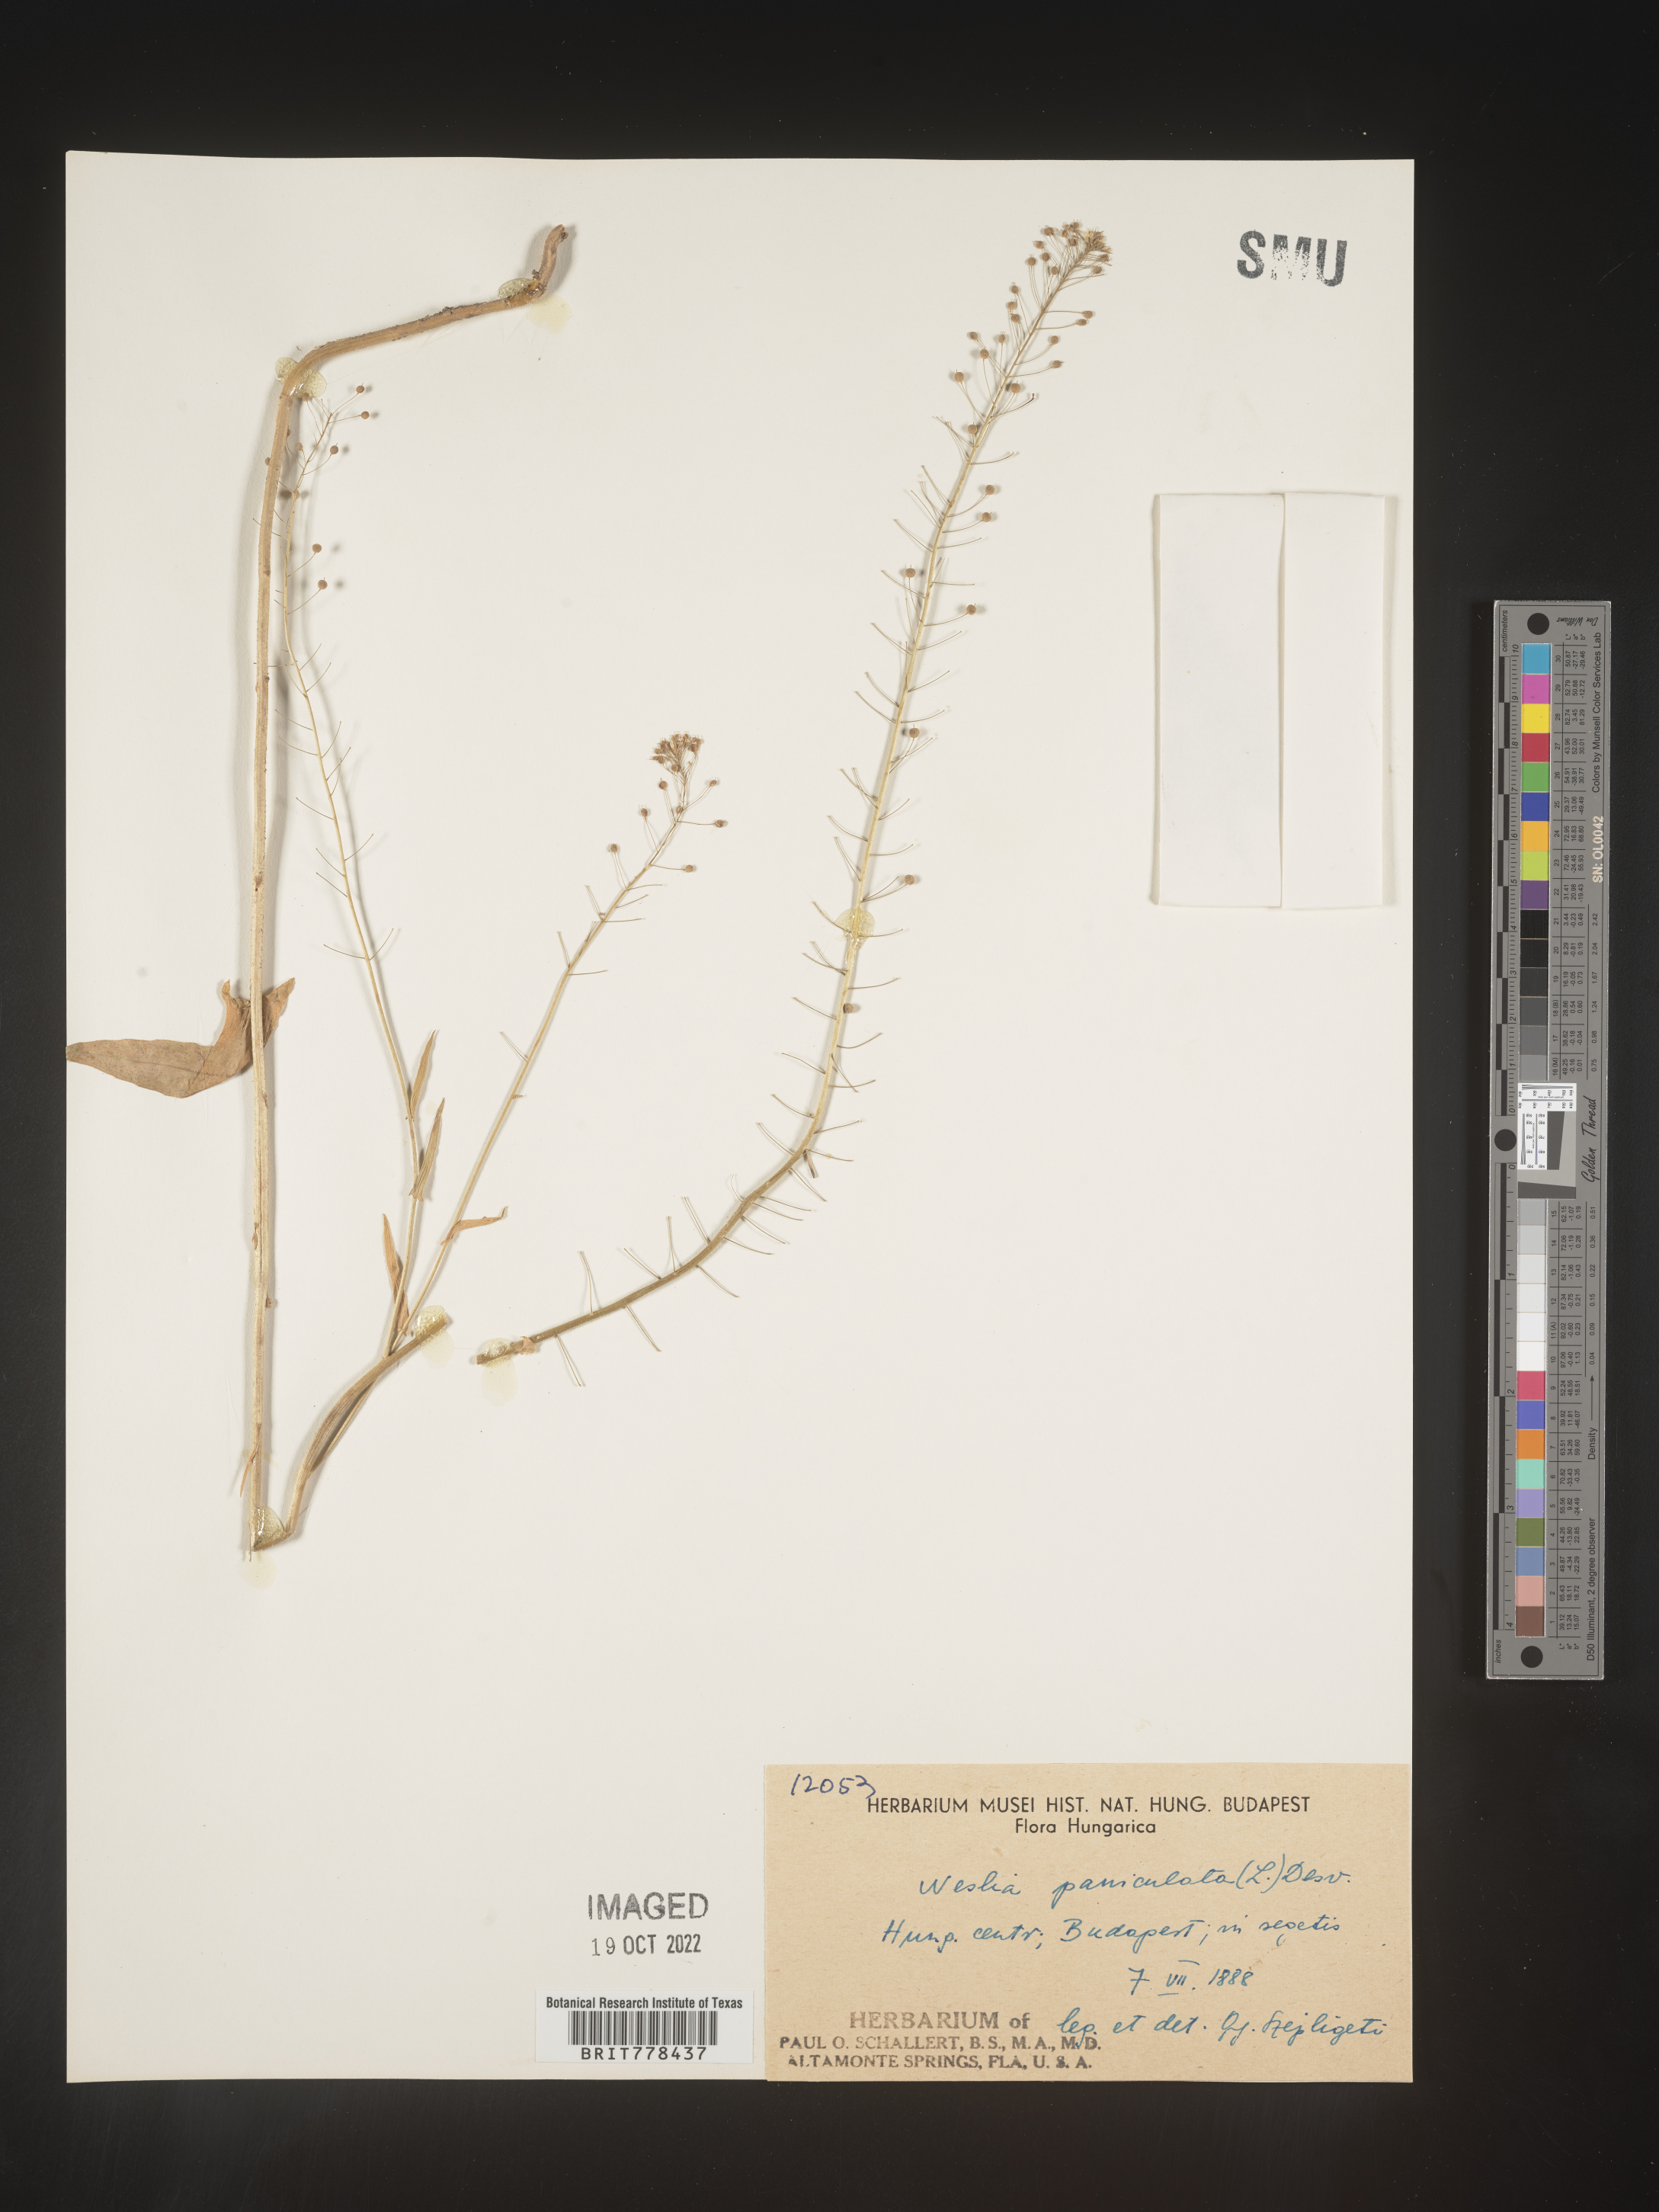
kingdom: Plantae
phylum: Tracheophyta
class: Magnoliopsida
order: Brassicales
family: Brassicaceae
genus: Neslia
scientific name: Neslia
